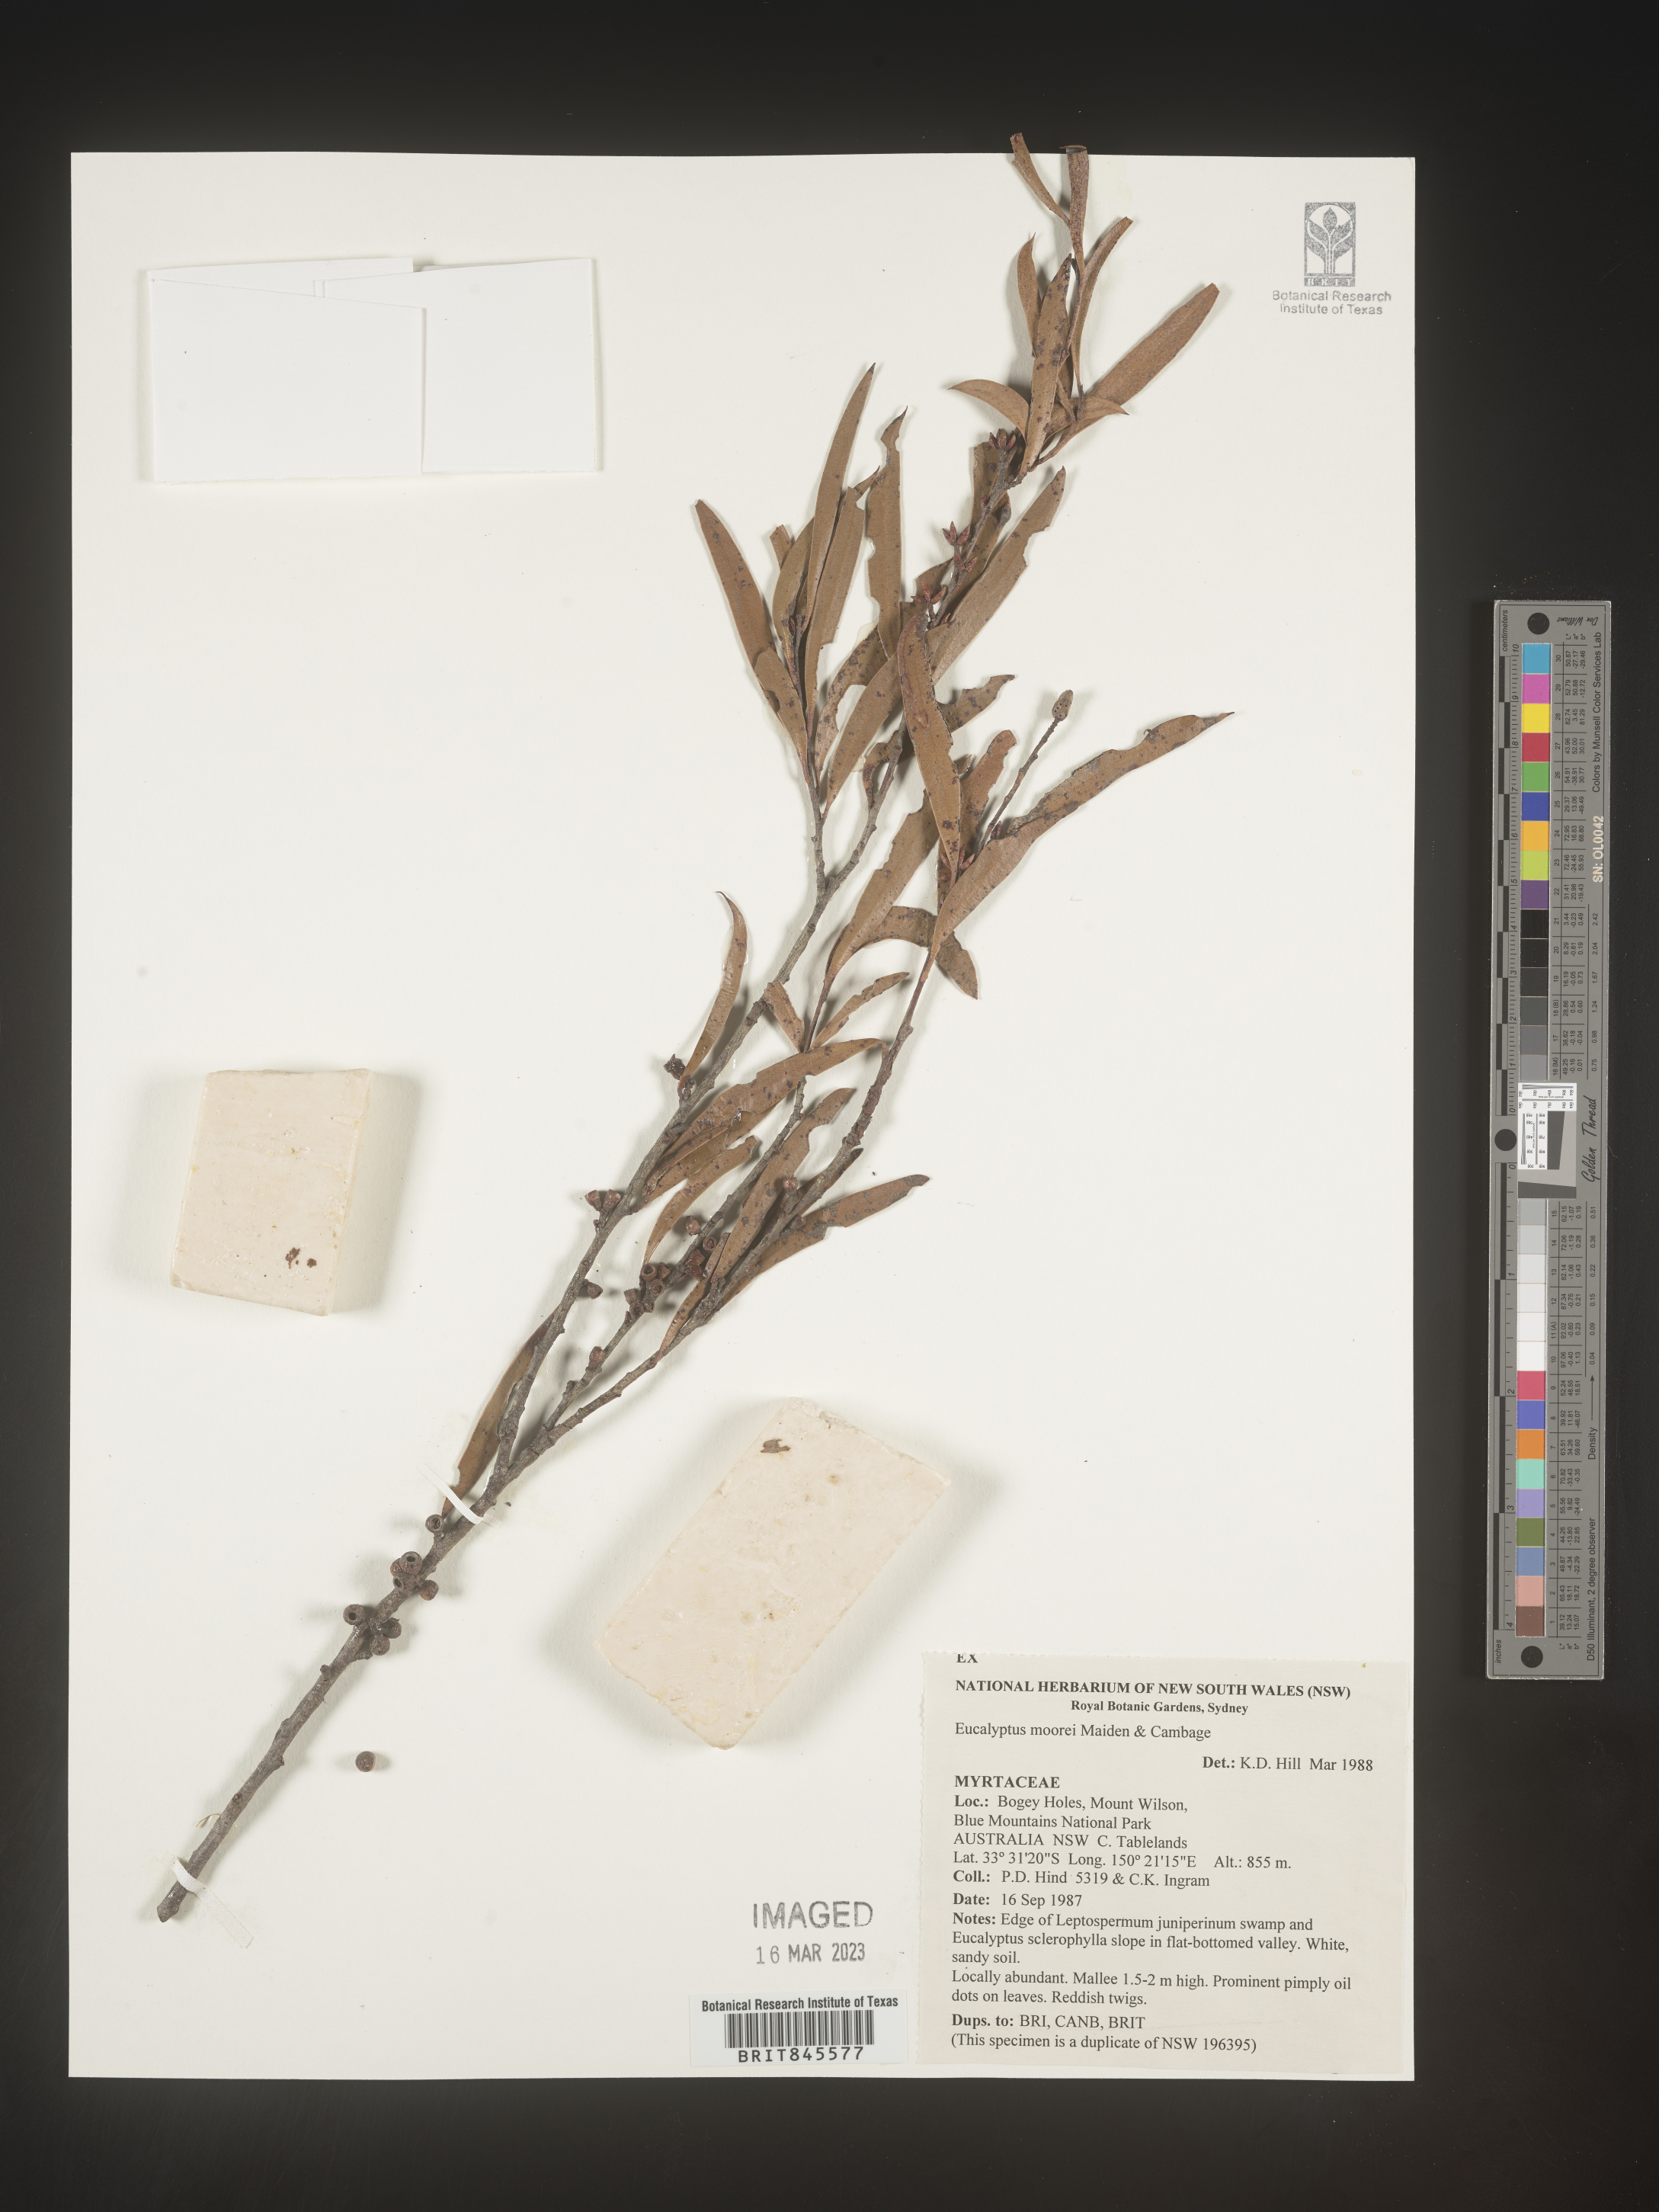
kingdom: Plantae
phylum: Tracheophyta
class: Magnoliopsida
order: Myrtales
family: Myrtaceae
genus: Eucalyptus
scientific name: Eucalyptus
